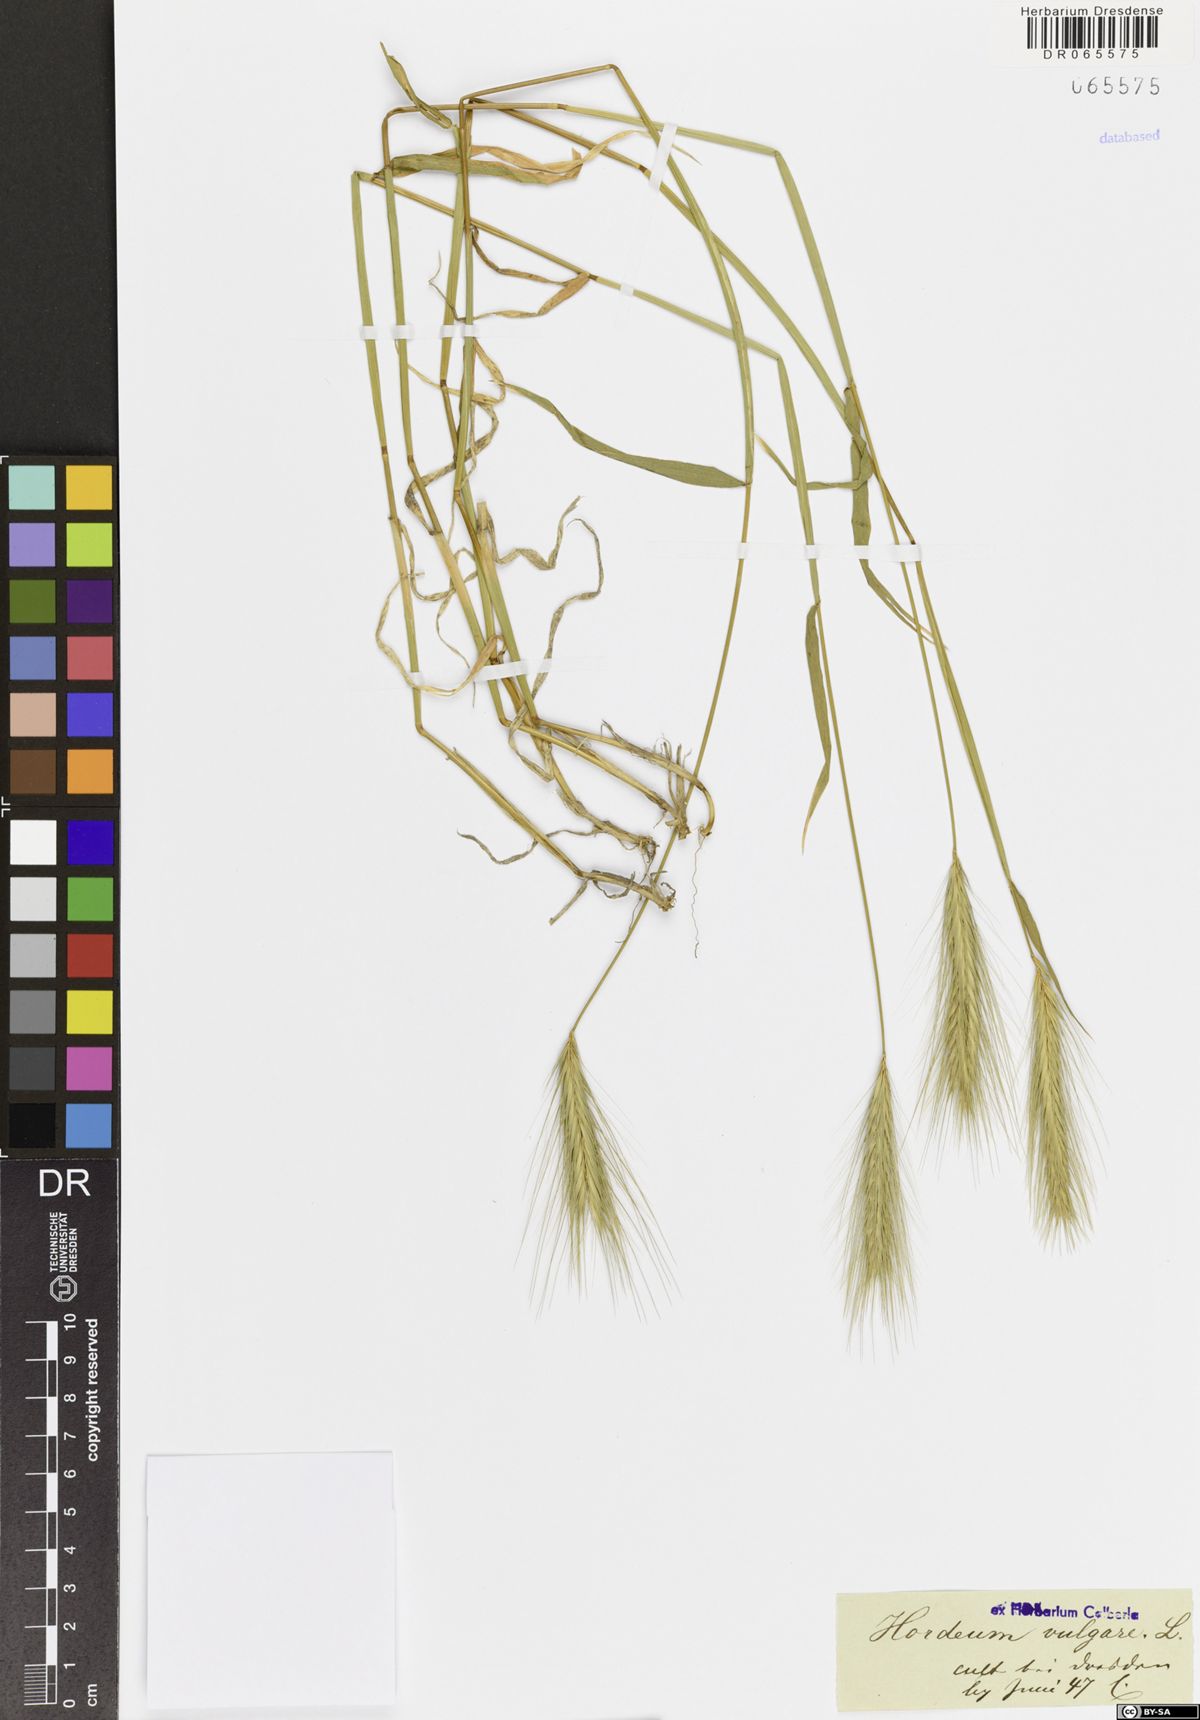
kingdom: Plantae
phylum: Tracheophyta
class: Liliopsida
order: Poales
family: Poaceae
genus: Hordeum
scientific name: Hordeum vulgare
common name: Common barley
